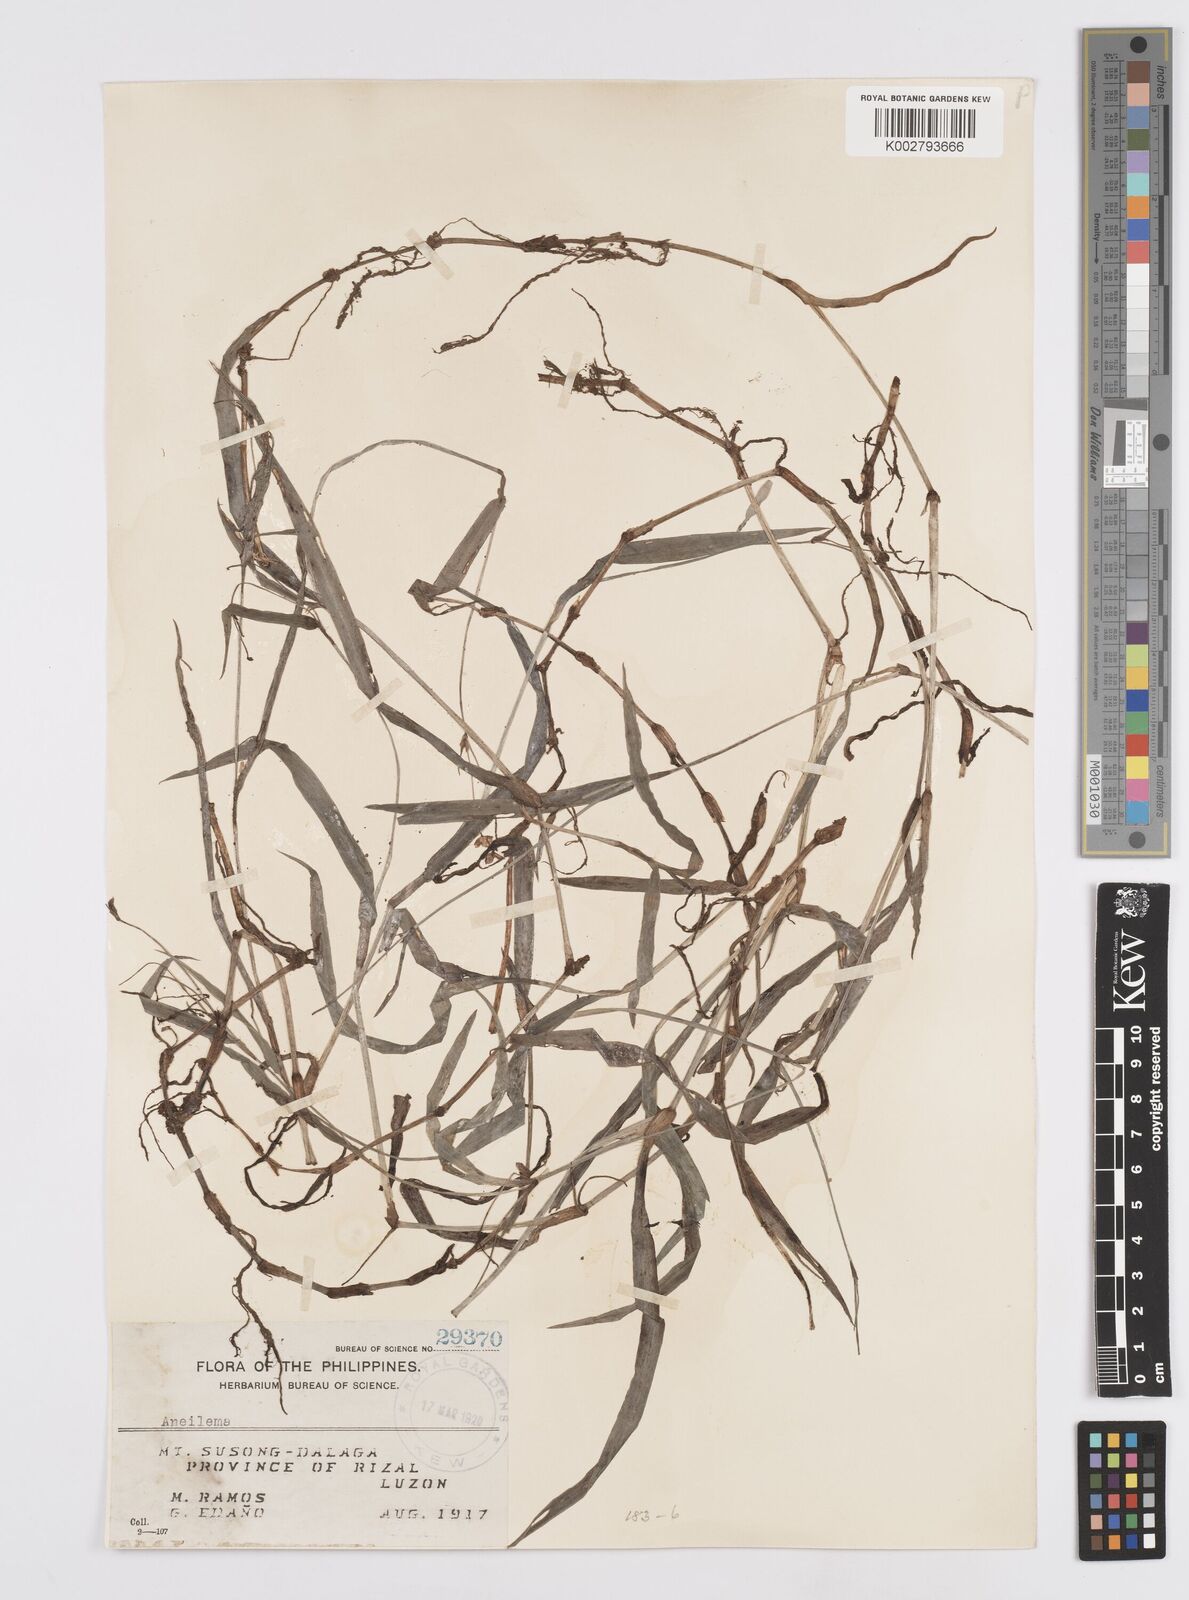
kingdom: Plantae
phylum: Tracheophyta
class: Liliopsida
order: Commelinales
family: Commelinaceae
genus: Murdannia
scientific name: Murdannia
